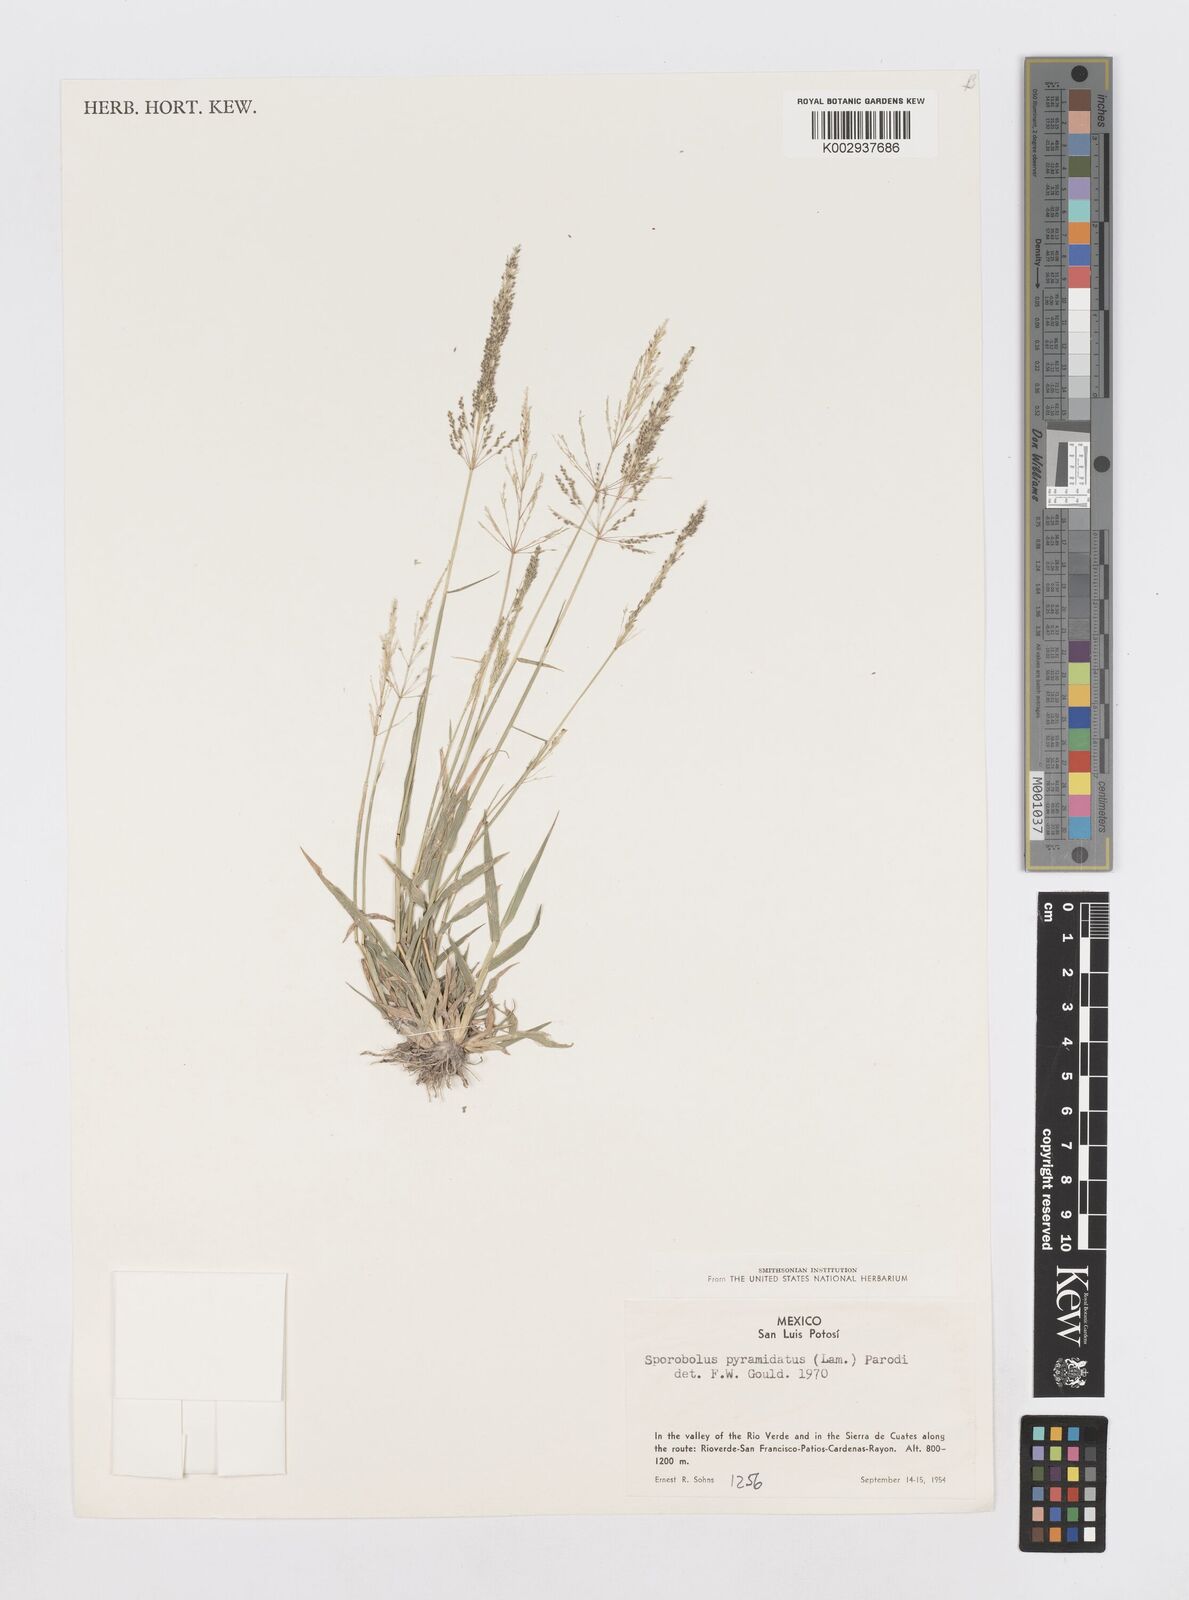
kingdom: Plantae
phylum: Tracheophyta
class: Liliopsida
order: Poales
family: Poaceae
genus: Sporobolus
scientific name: Sporobolus pyramidatus
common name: Whorled dropseed
